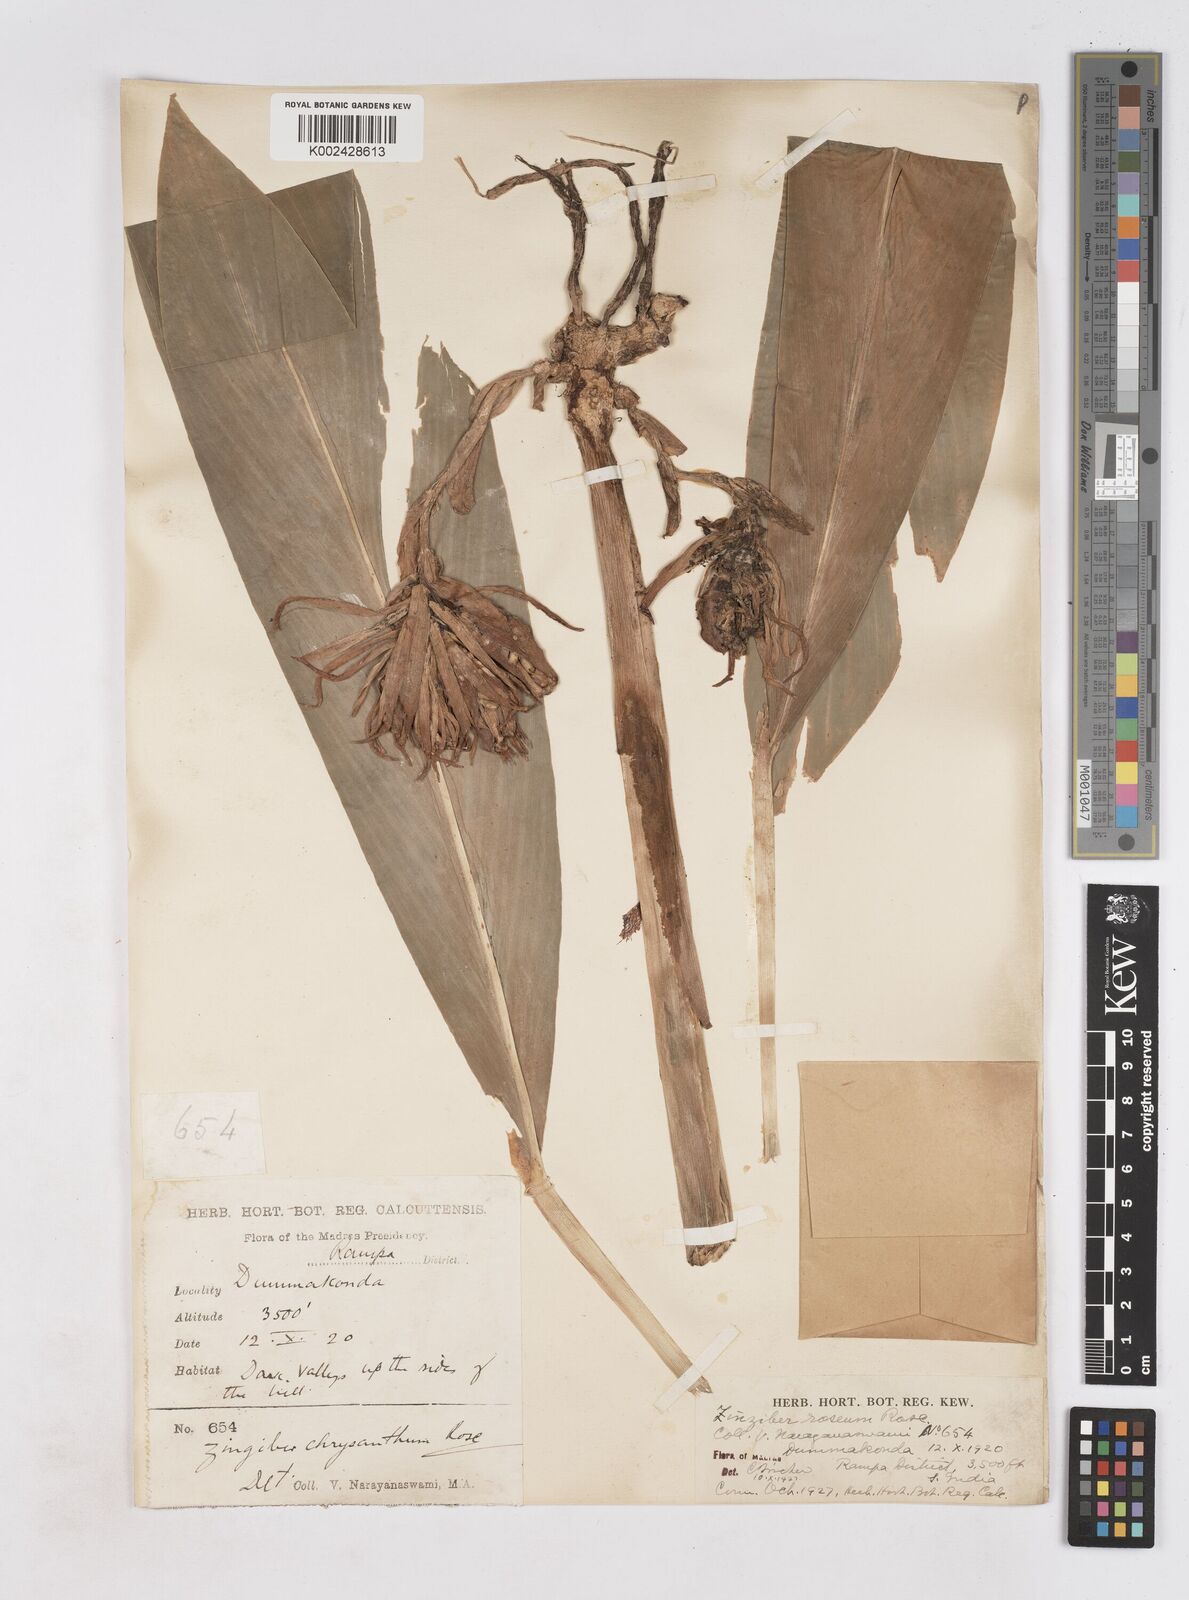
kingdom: Plantae
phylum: Tracheophyta
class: Liliopsida
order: Zingiberales
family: Zingiberaceae
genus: Zingiber
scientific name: Zingiber roseum
